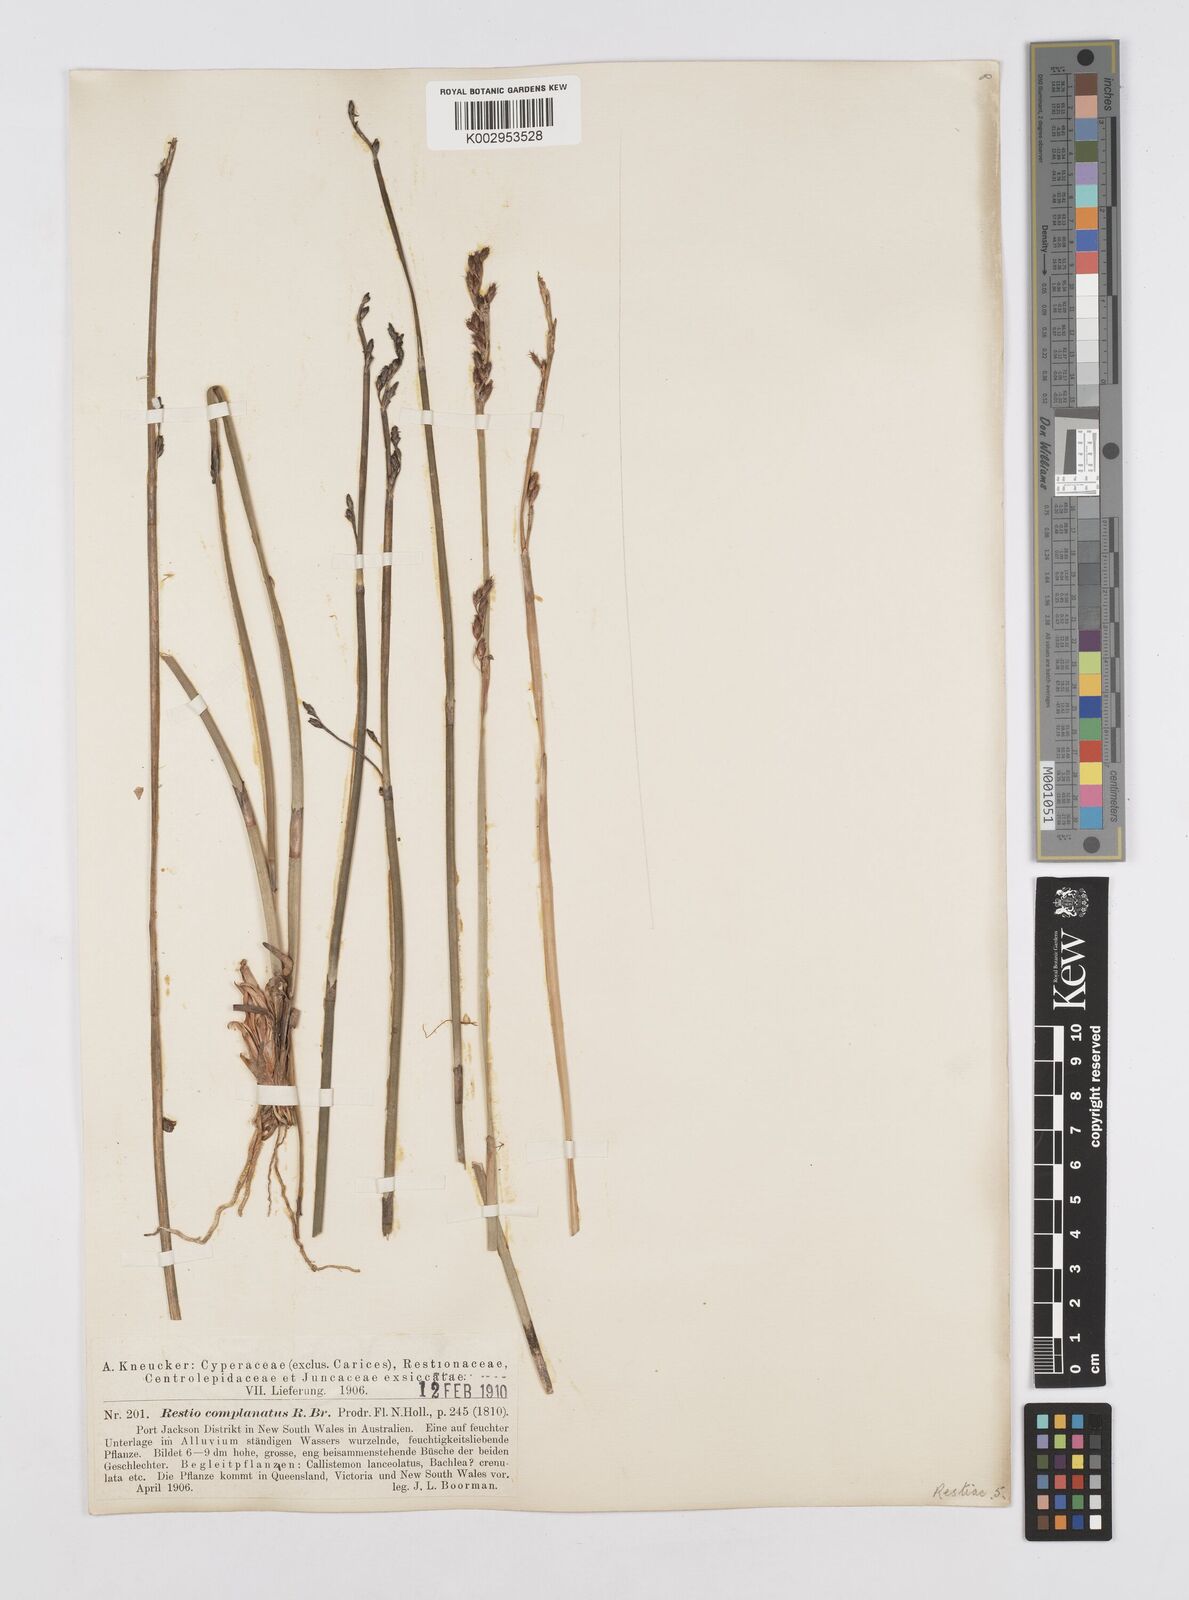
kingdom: Plantae
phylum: Tracheophyta
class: Liliopsida
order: Poales
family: Restionaceae
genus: Eurychorda
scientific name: Eurychorda complanata
